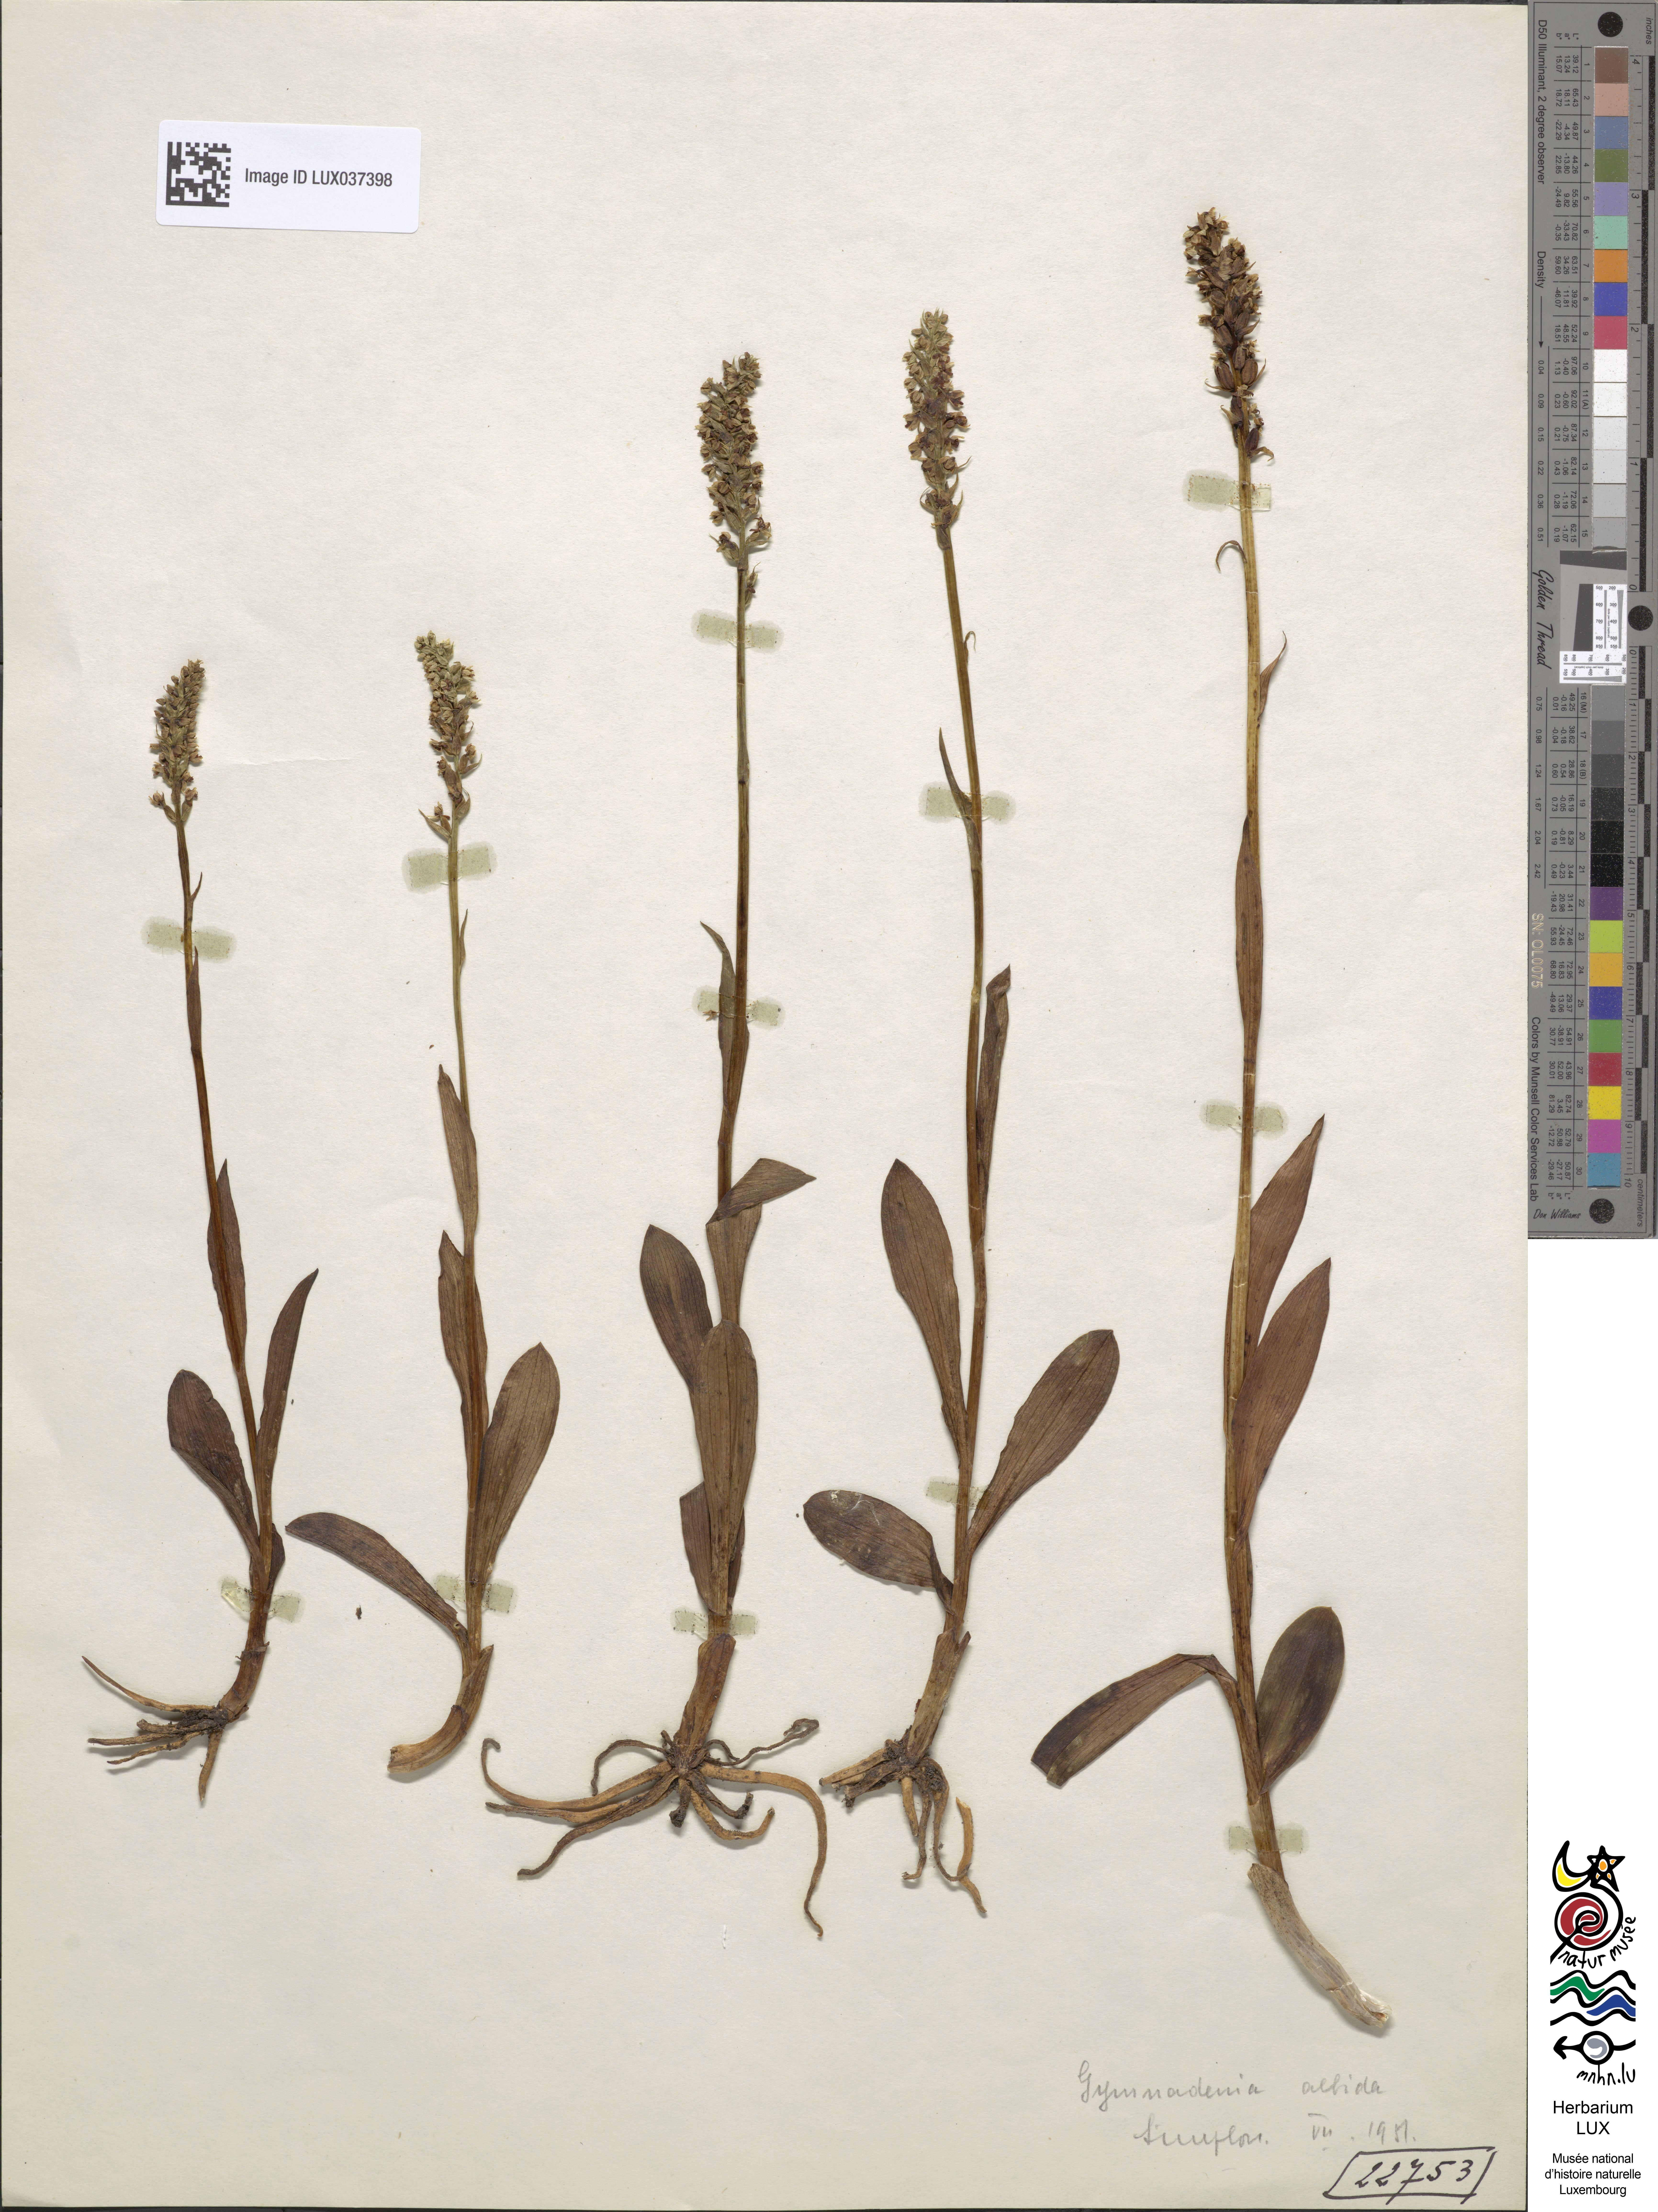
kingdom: Plantae
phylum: Tracheophyta
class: Liliopsida
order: Asparagales
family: Orchidaceae
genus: Pseudorchis
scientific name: Pseudorchis albida
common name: Small-white orchid
